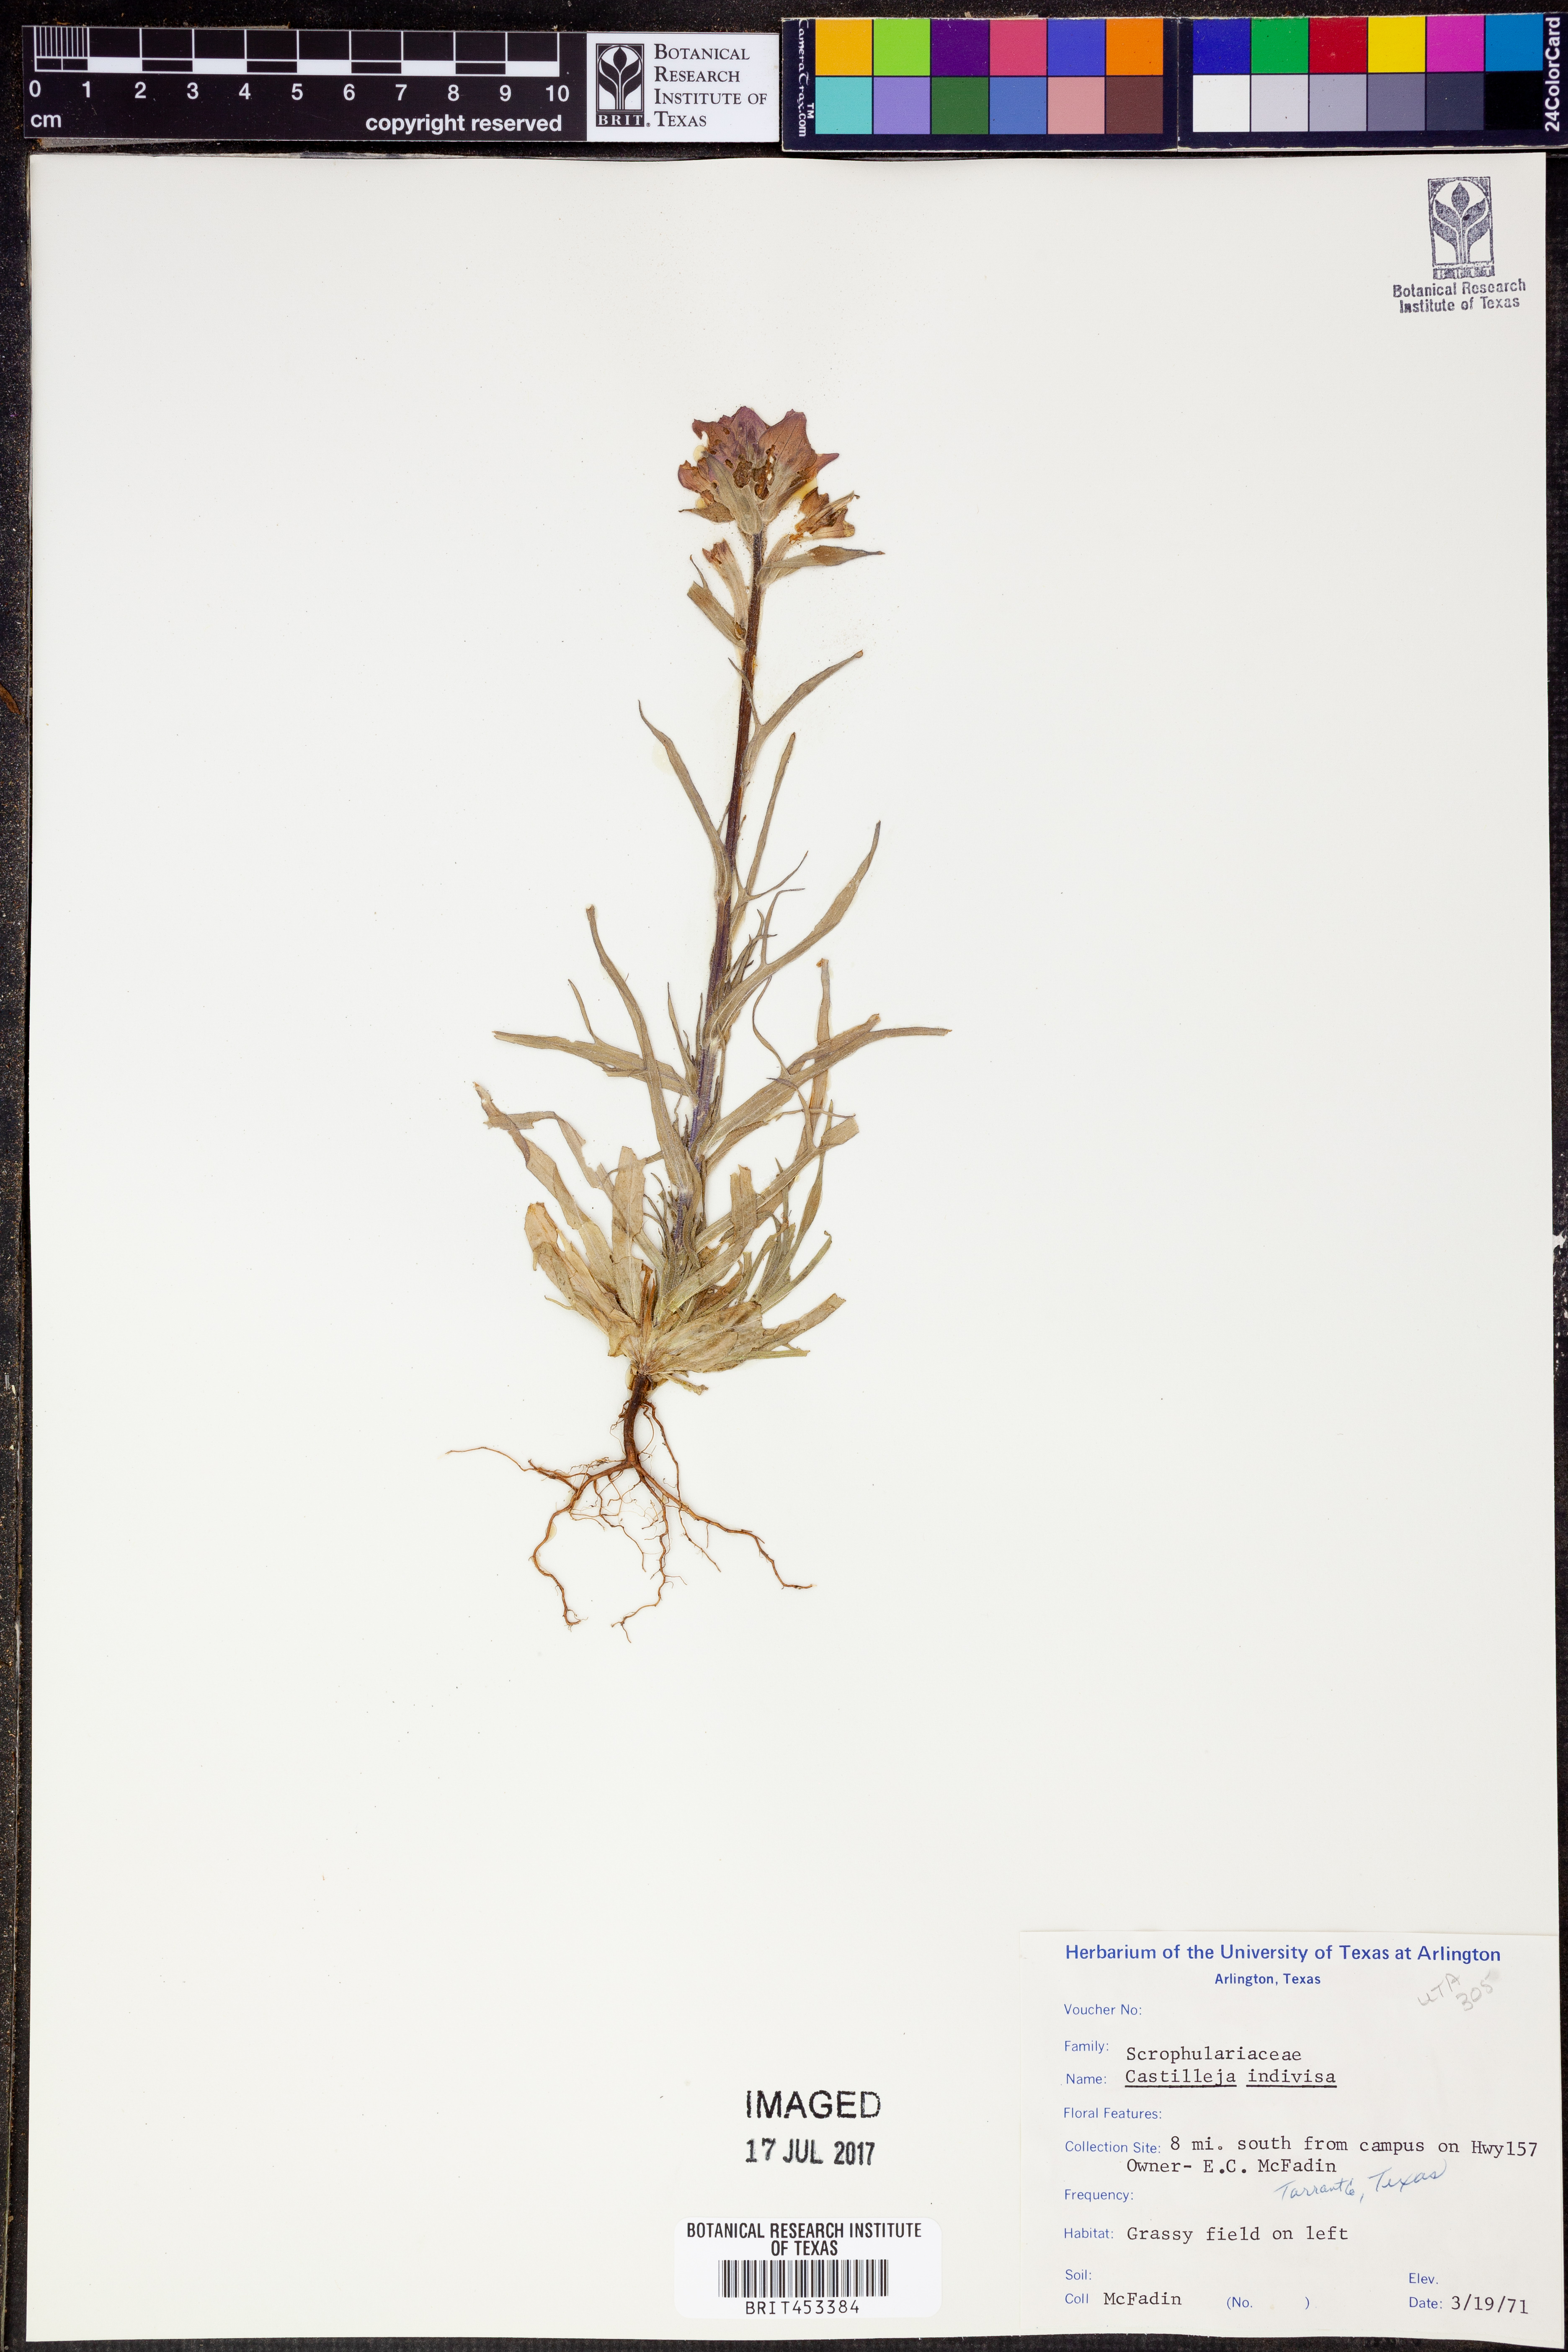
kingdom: Plantae
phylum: Tracheophyta
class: Magnoliopsida
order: Lamiales
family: Orobanchaceae
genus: Castilleja
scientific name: Castilleja indivisa
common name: Texas paintbrush
